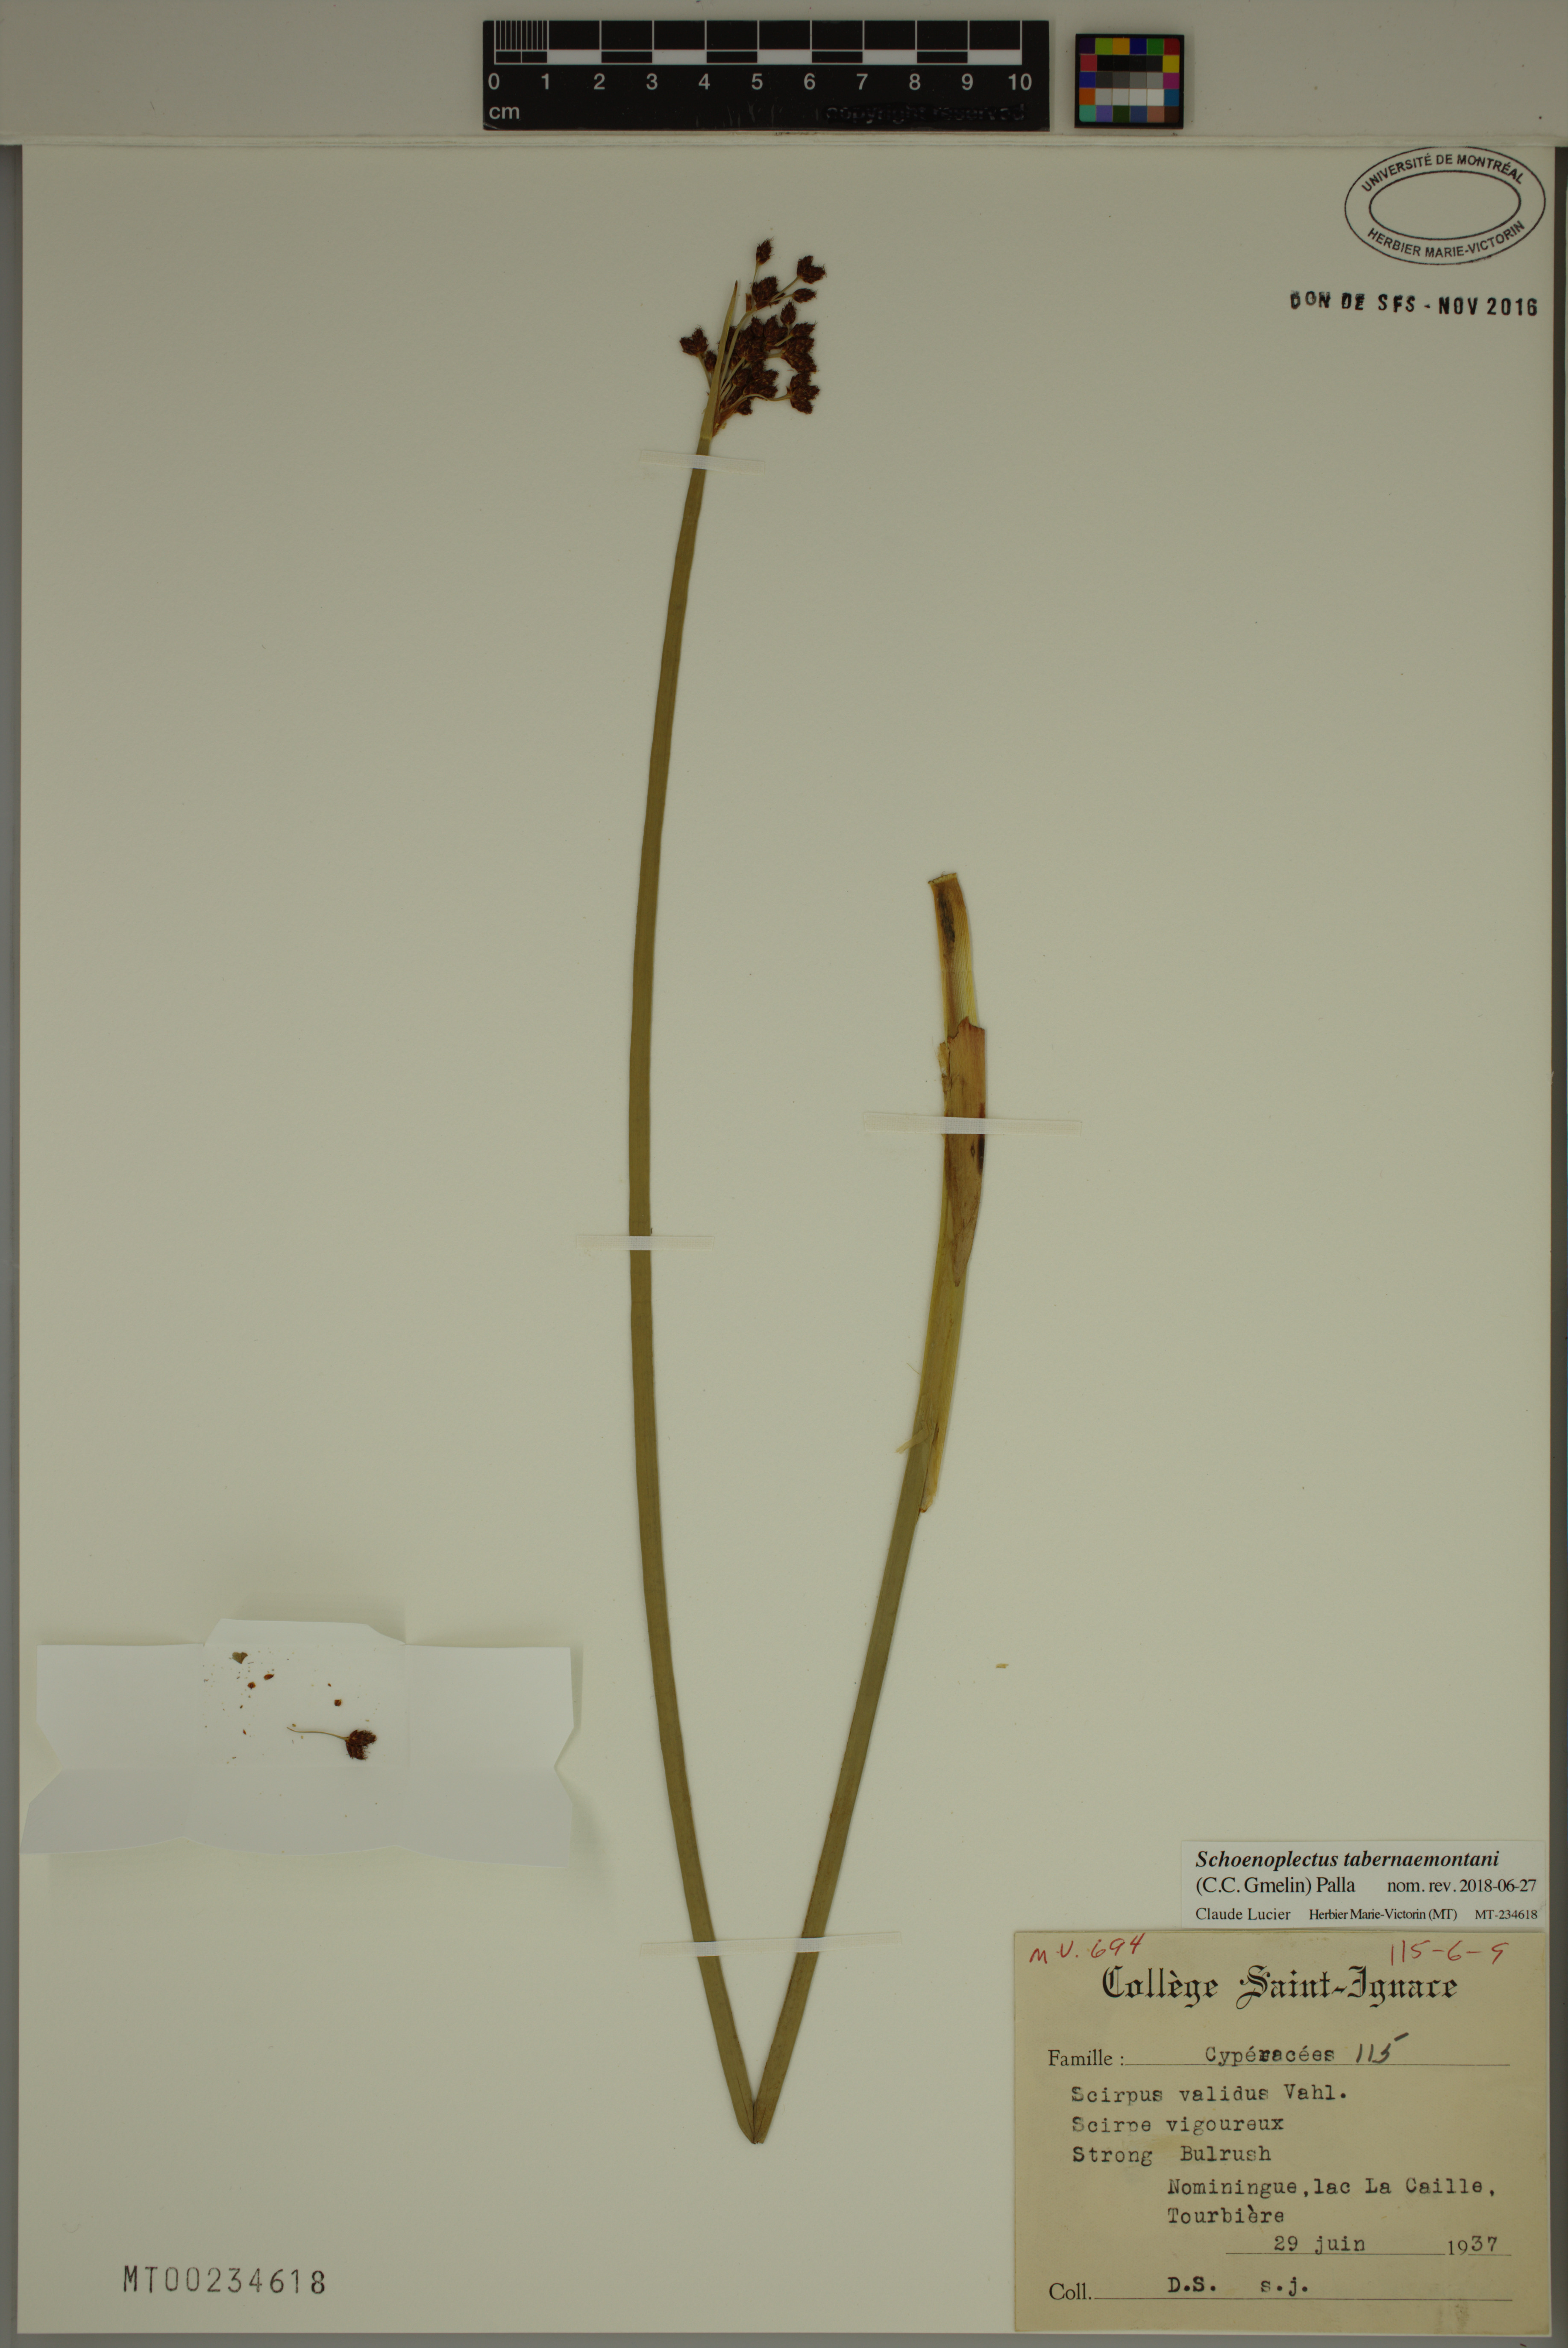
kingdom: Plantae
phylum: Tracheophyta
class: Liliopsida
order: Poales
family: Cyperaceae
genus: Schoenoplectus
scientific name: Schoenoplectus tabernaemontani
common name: Grey club-rush
